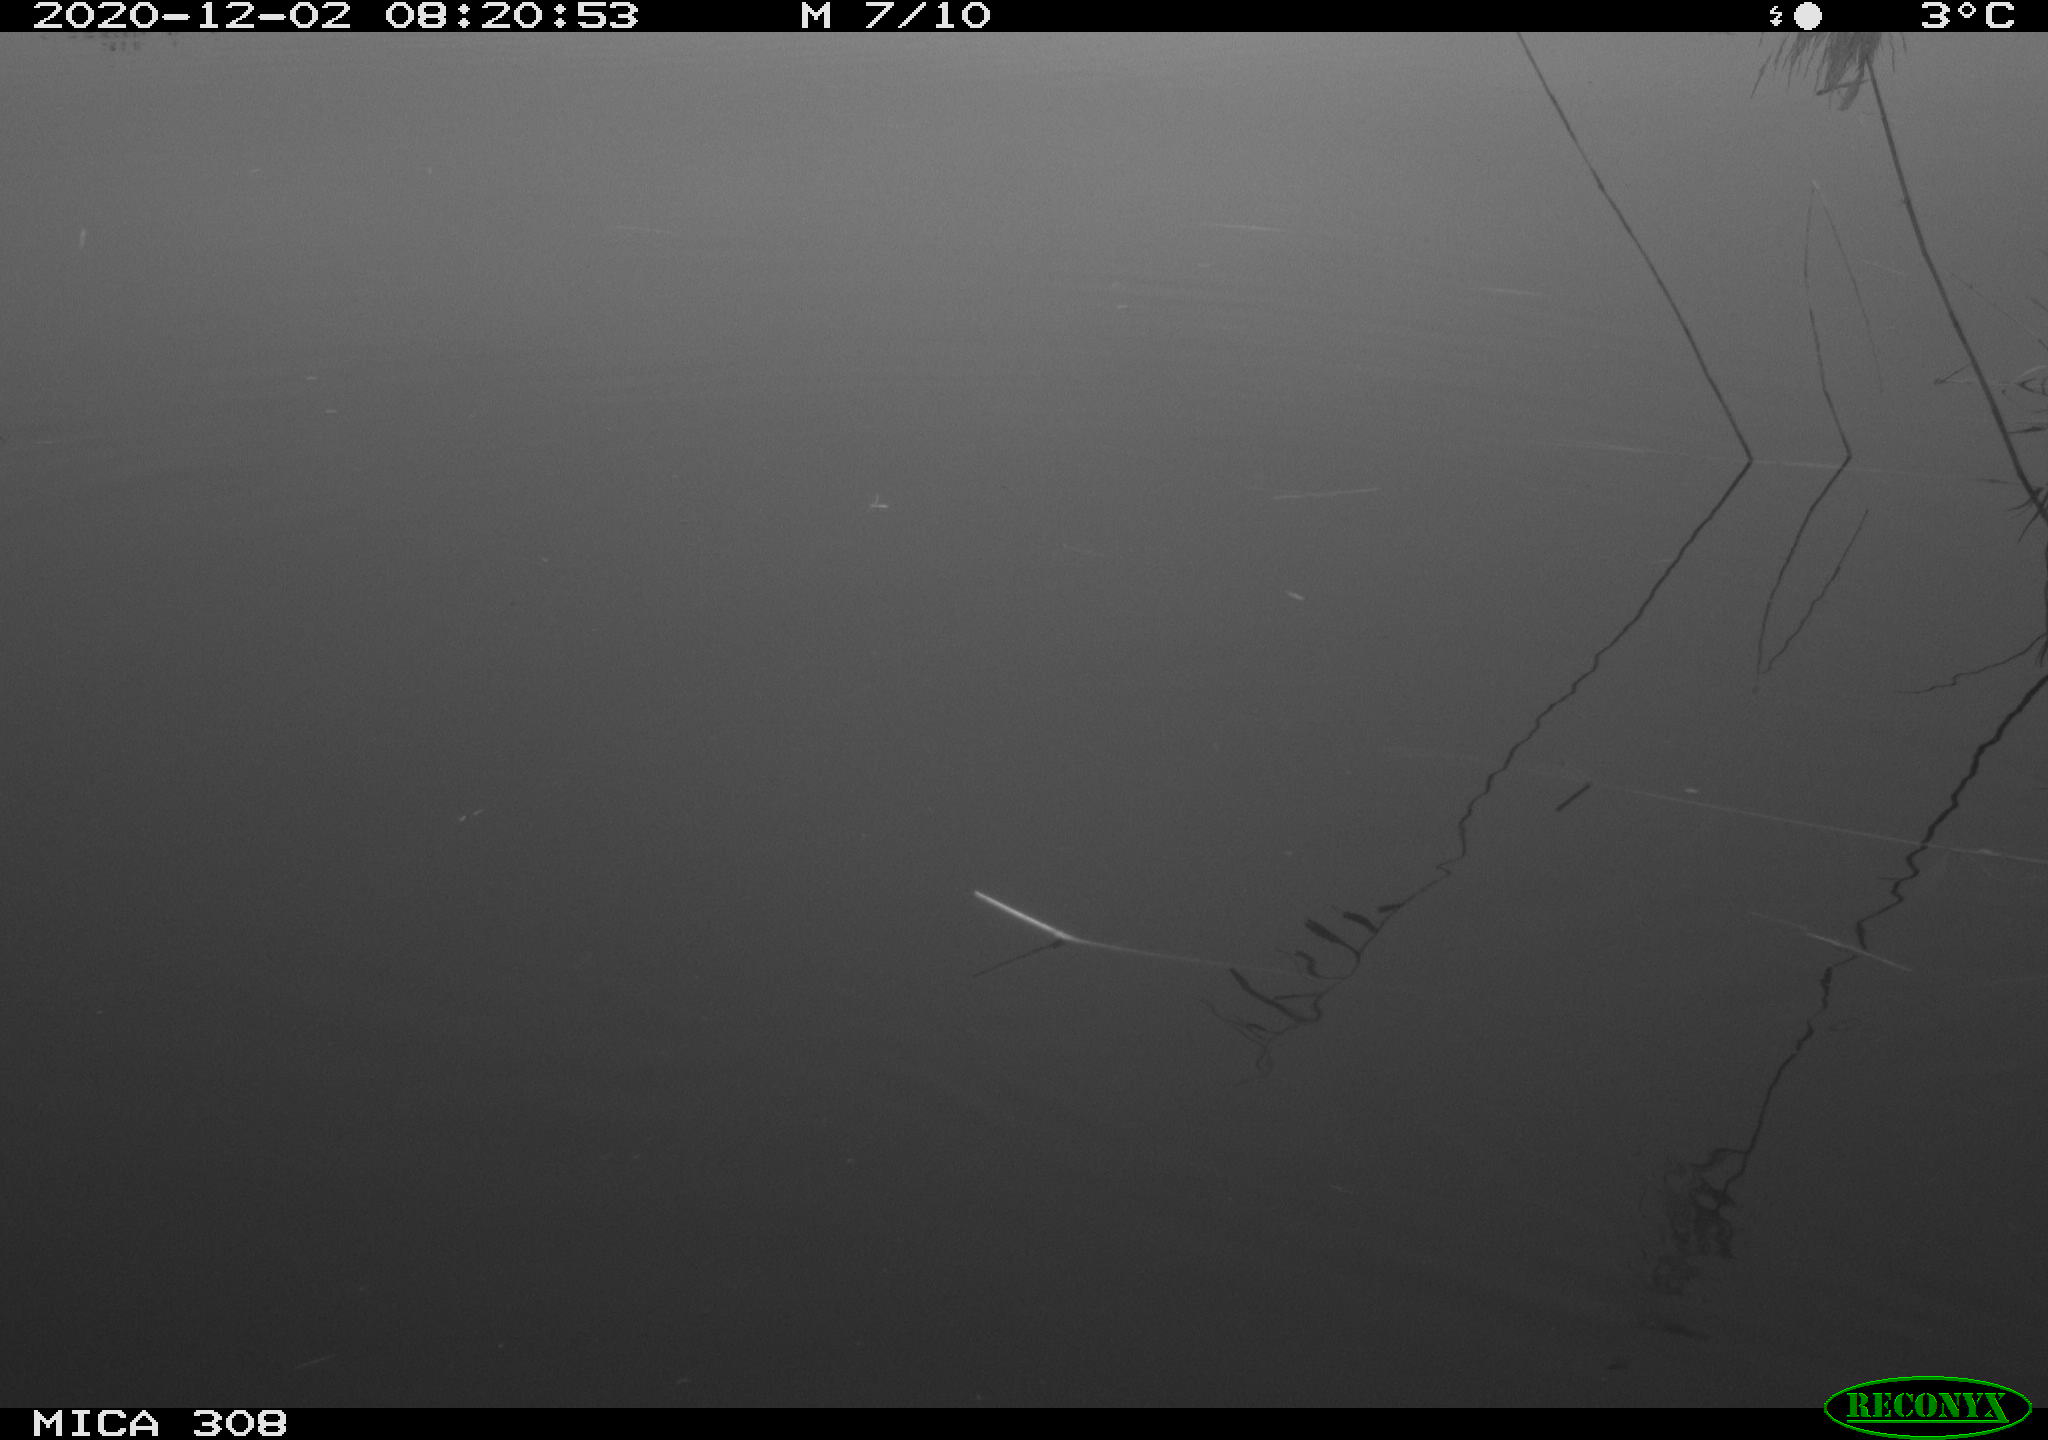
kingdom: Animalia
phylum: Chordata
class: Aves
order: Gruiformes
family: Rallidae
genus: Gallinula
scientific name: Gallinula chloropus
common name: Common moorhen
